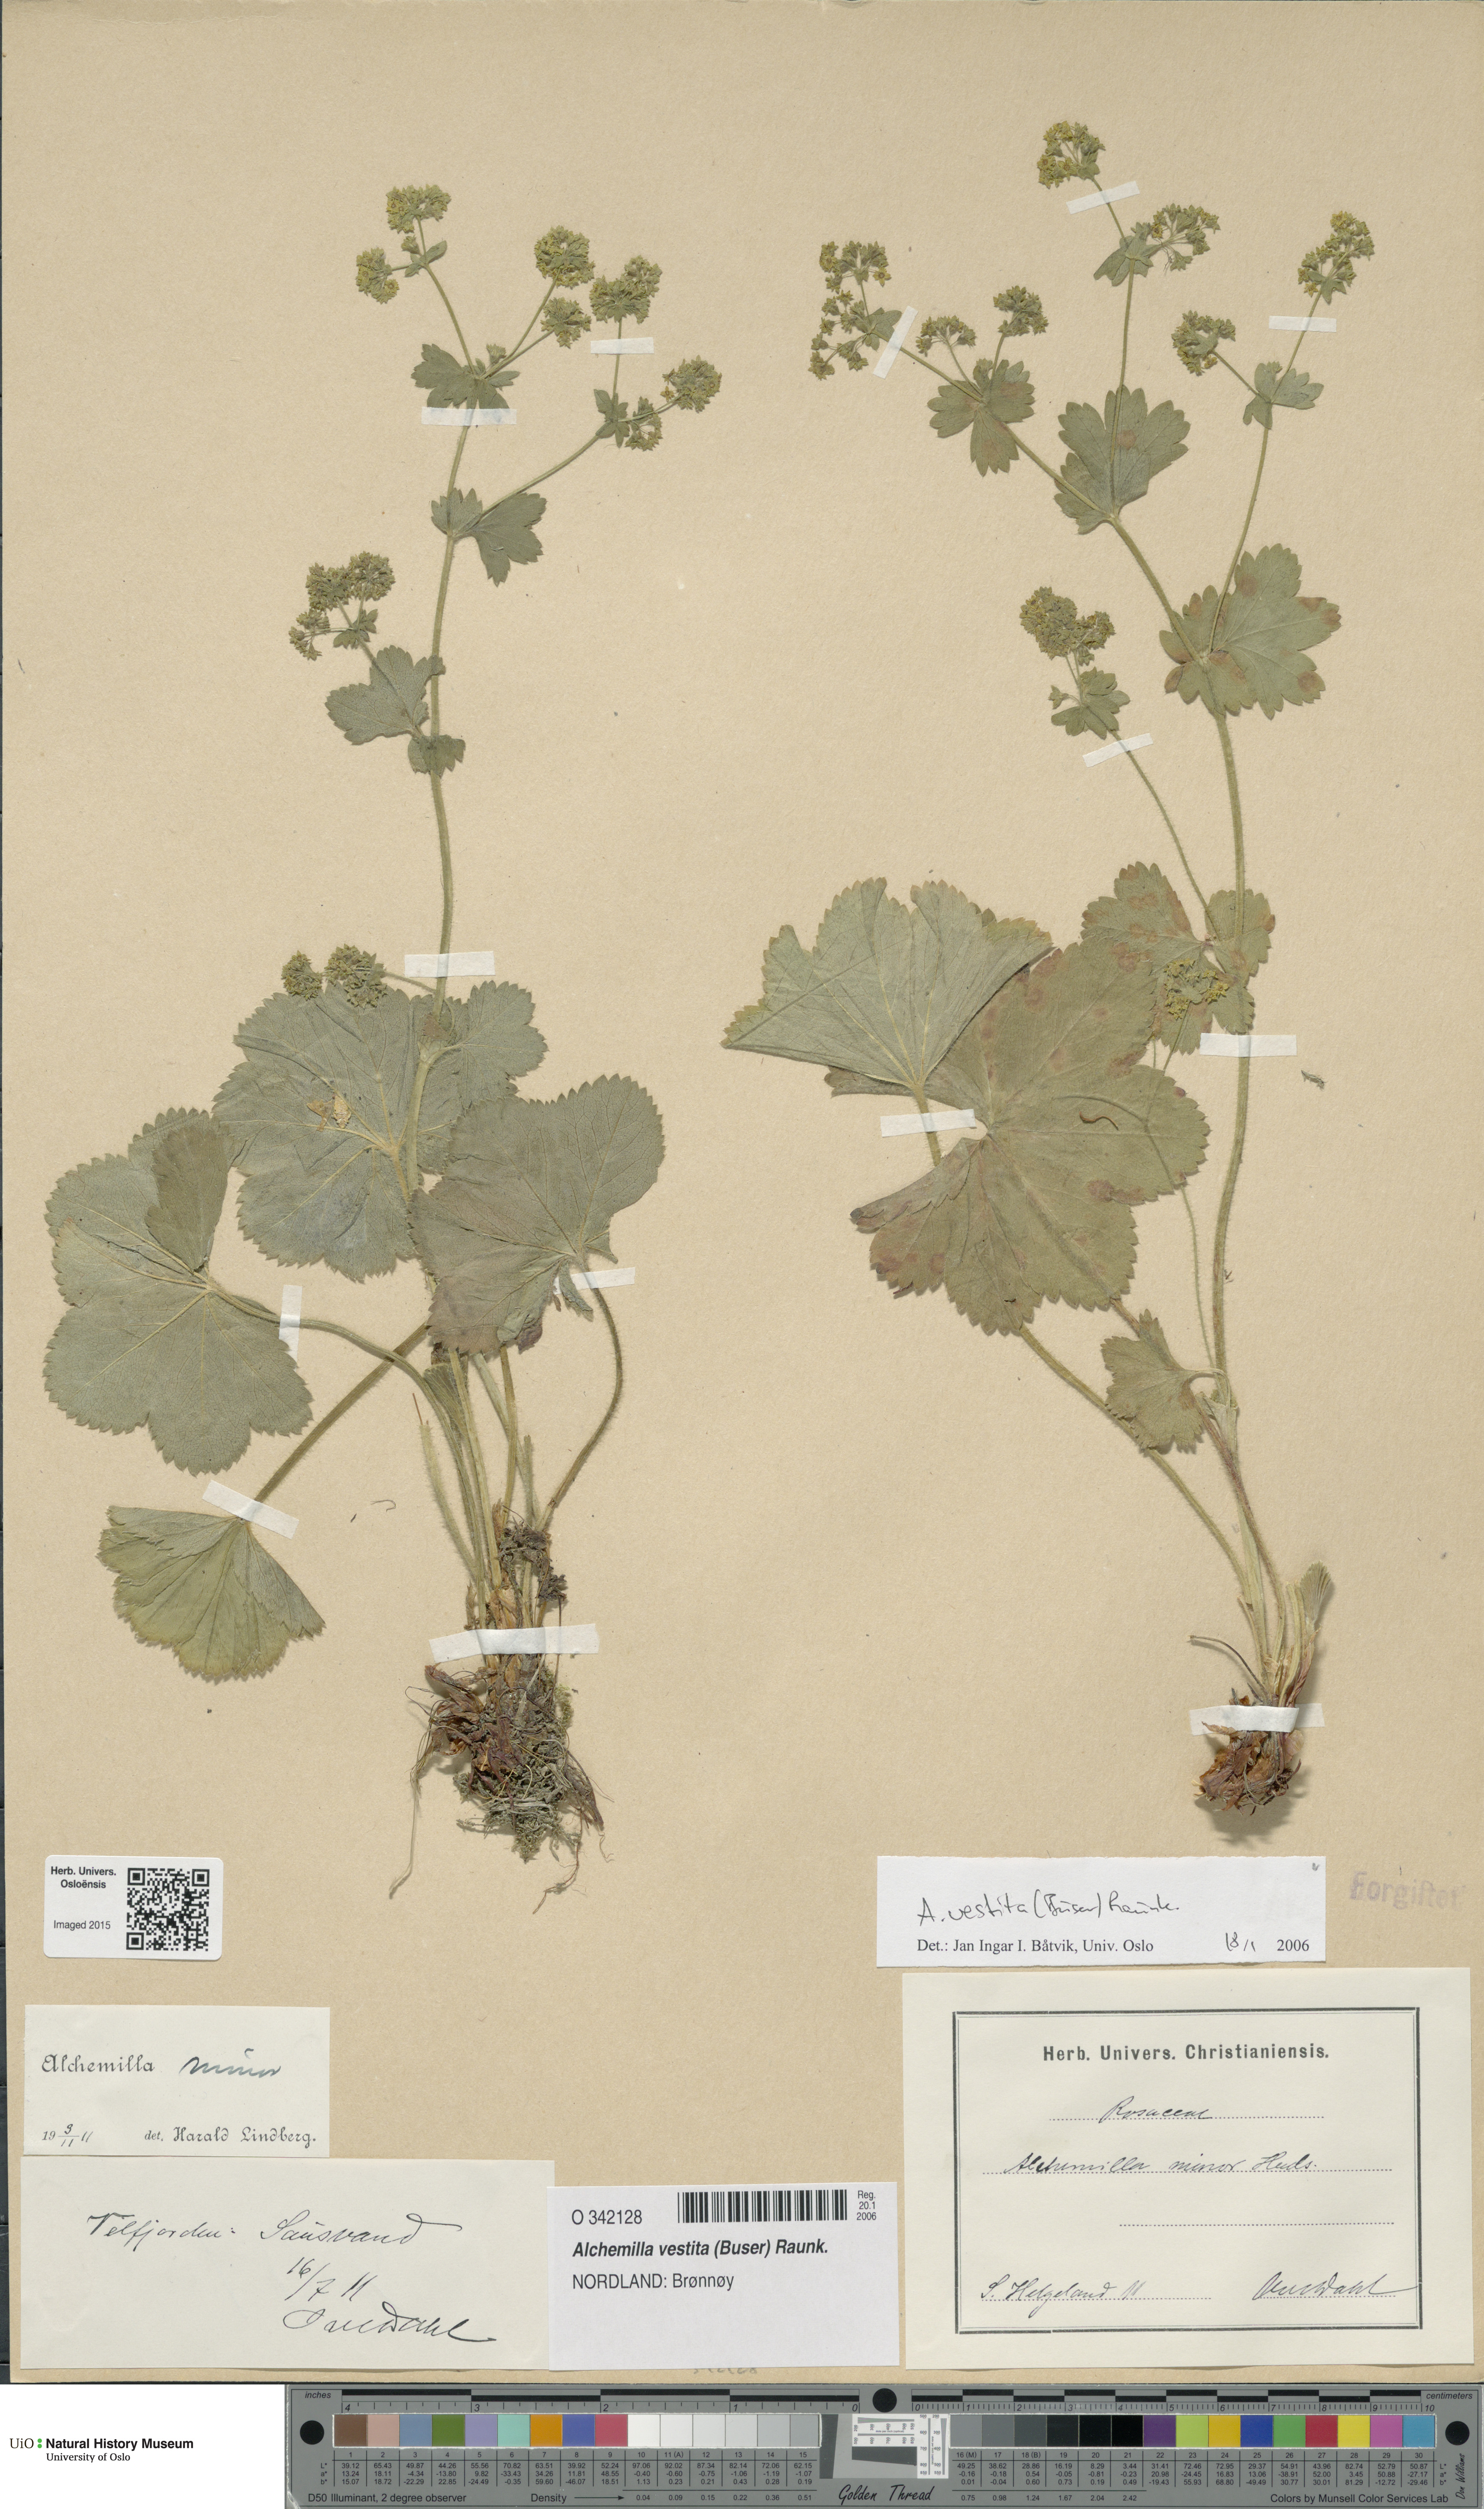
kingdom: Plantae
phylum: Tracheophyta
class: Magnoliopsida
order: Rosales
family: Rosaceae
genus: Alchemilla
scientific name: Alchemilla filicaulis
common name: Hairy lady's-mantle
